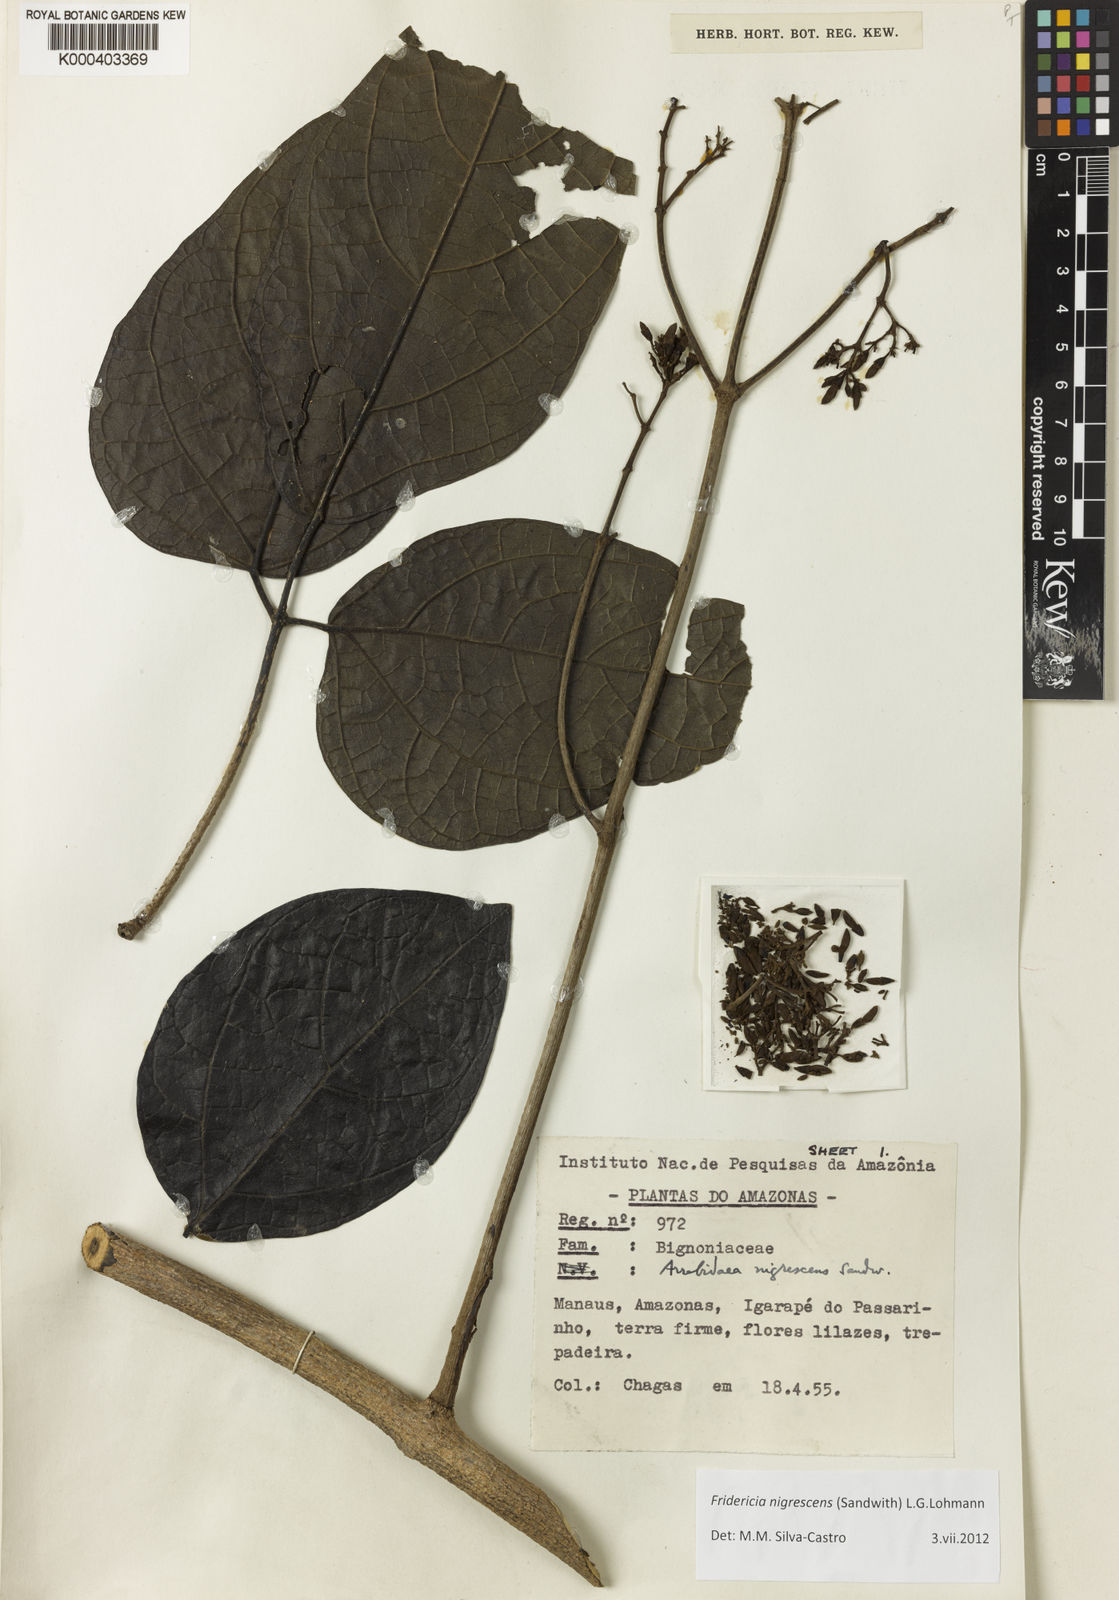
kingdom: Plantae
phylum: Tracheophyta
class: Magnoliopsida
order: Lamiales
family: Bignoniaceae
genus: Fridericia
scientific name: Fridericia nigrescens
